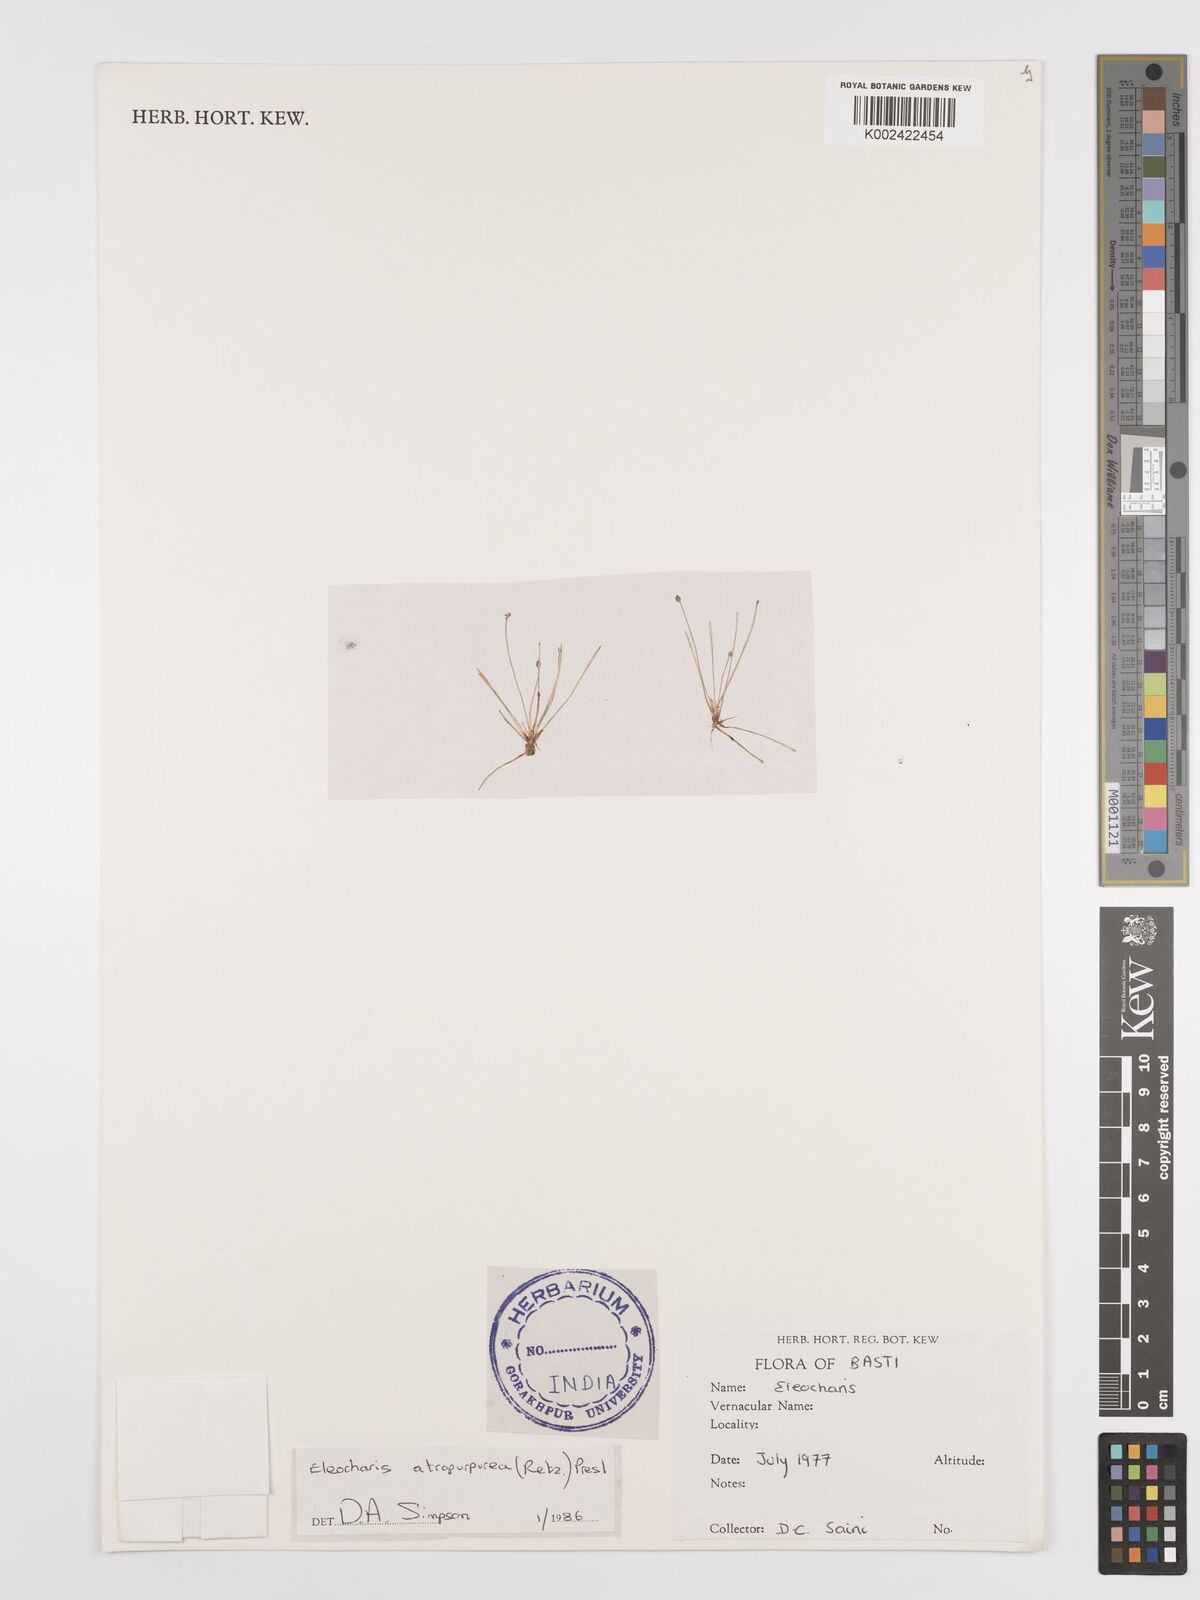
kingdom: Plantae
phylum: Tracheophyta
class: Liliopsida
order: Poales
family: Cyperaceae
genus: Eleocharis
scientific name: Eleocharis atropurpurea
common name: Purple spikerush
